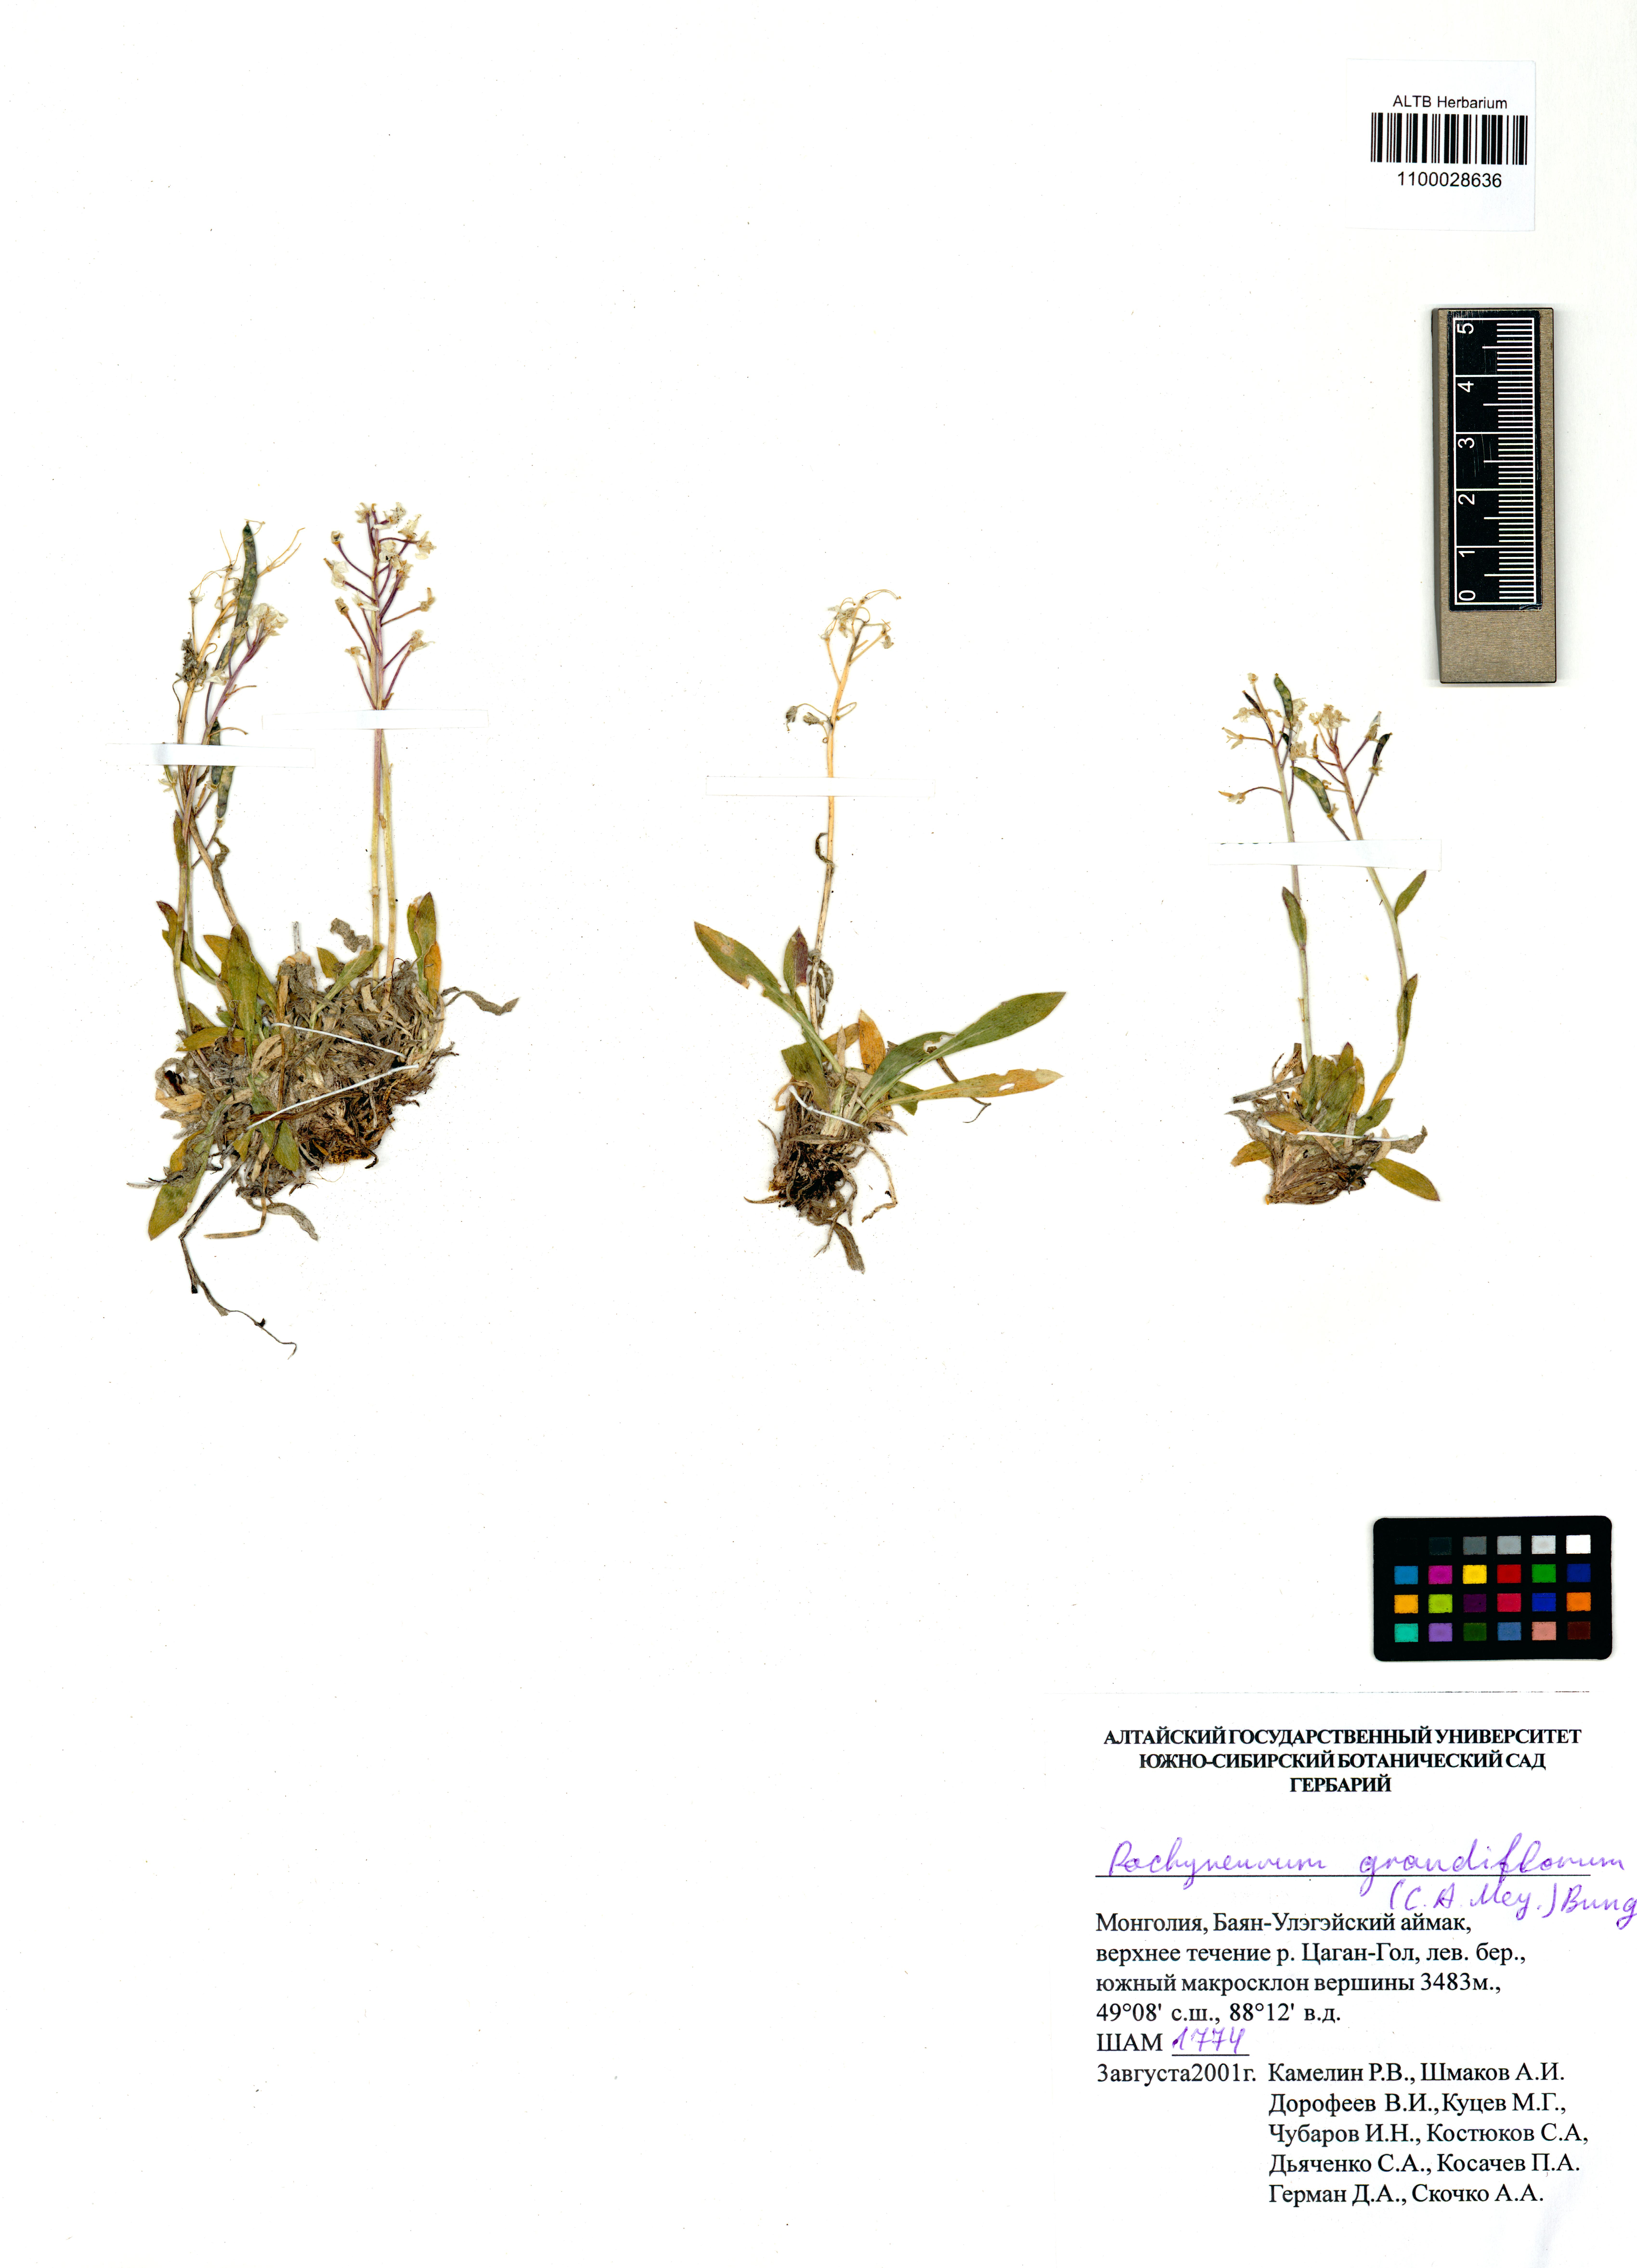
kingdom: Plantae
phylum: Tracheophyta
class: Magnoliopsida
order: Brassicales
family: Brassicaceae
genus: Pachyneurum
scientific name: Pachyneurum grandiflorum
